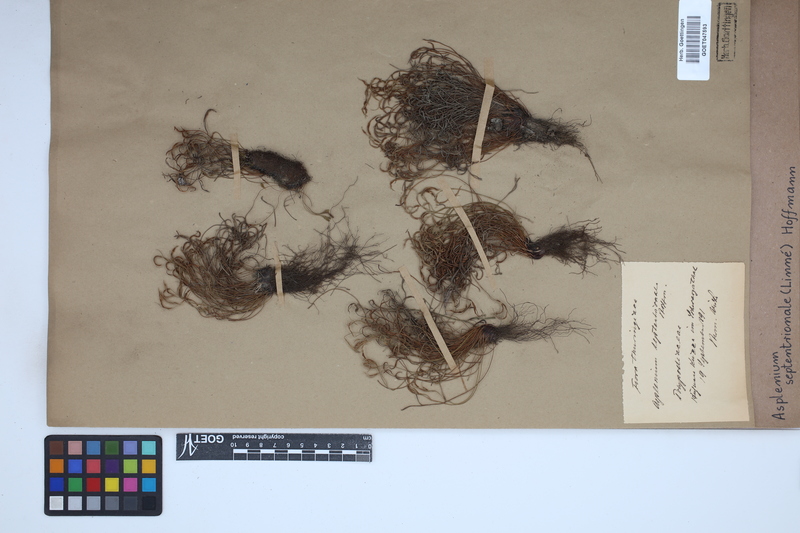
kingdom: Plantae
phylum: Tracheophyta
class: Polypodiopsida
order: Polypodiales
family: Aspleniaceae
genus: Asplenium
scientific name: Asplenium septentrionale
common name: Forked spleenwort
